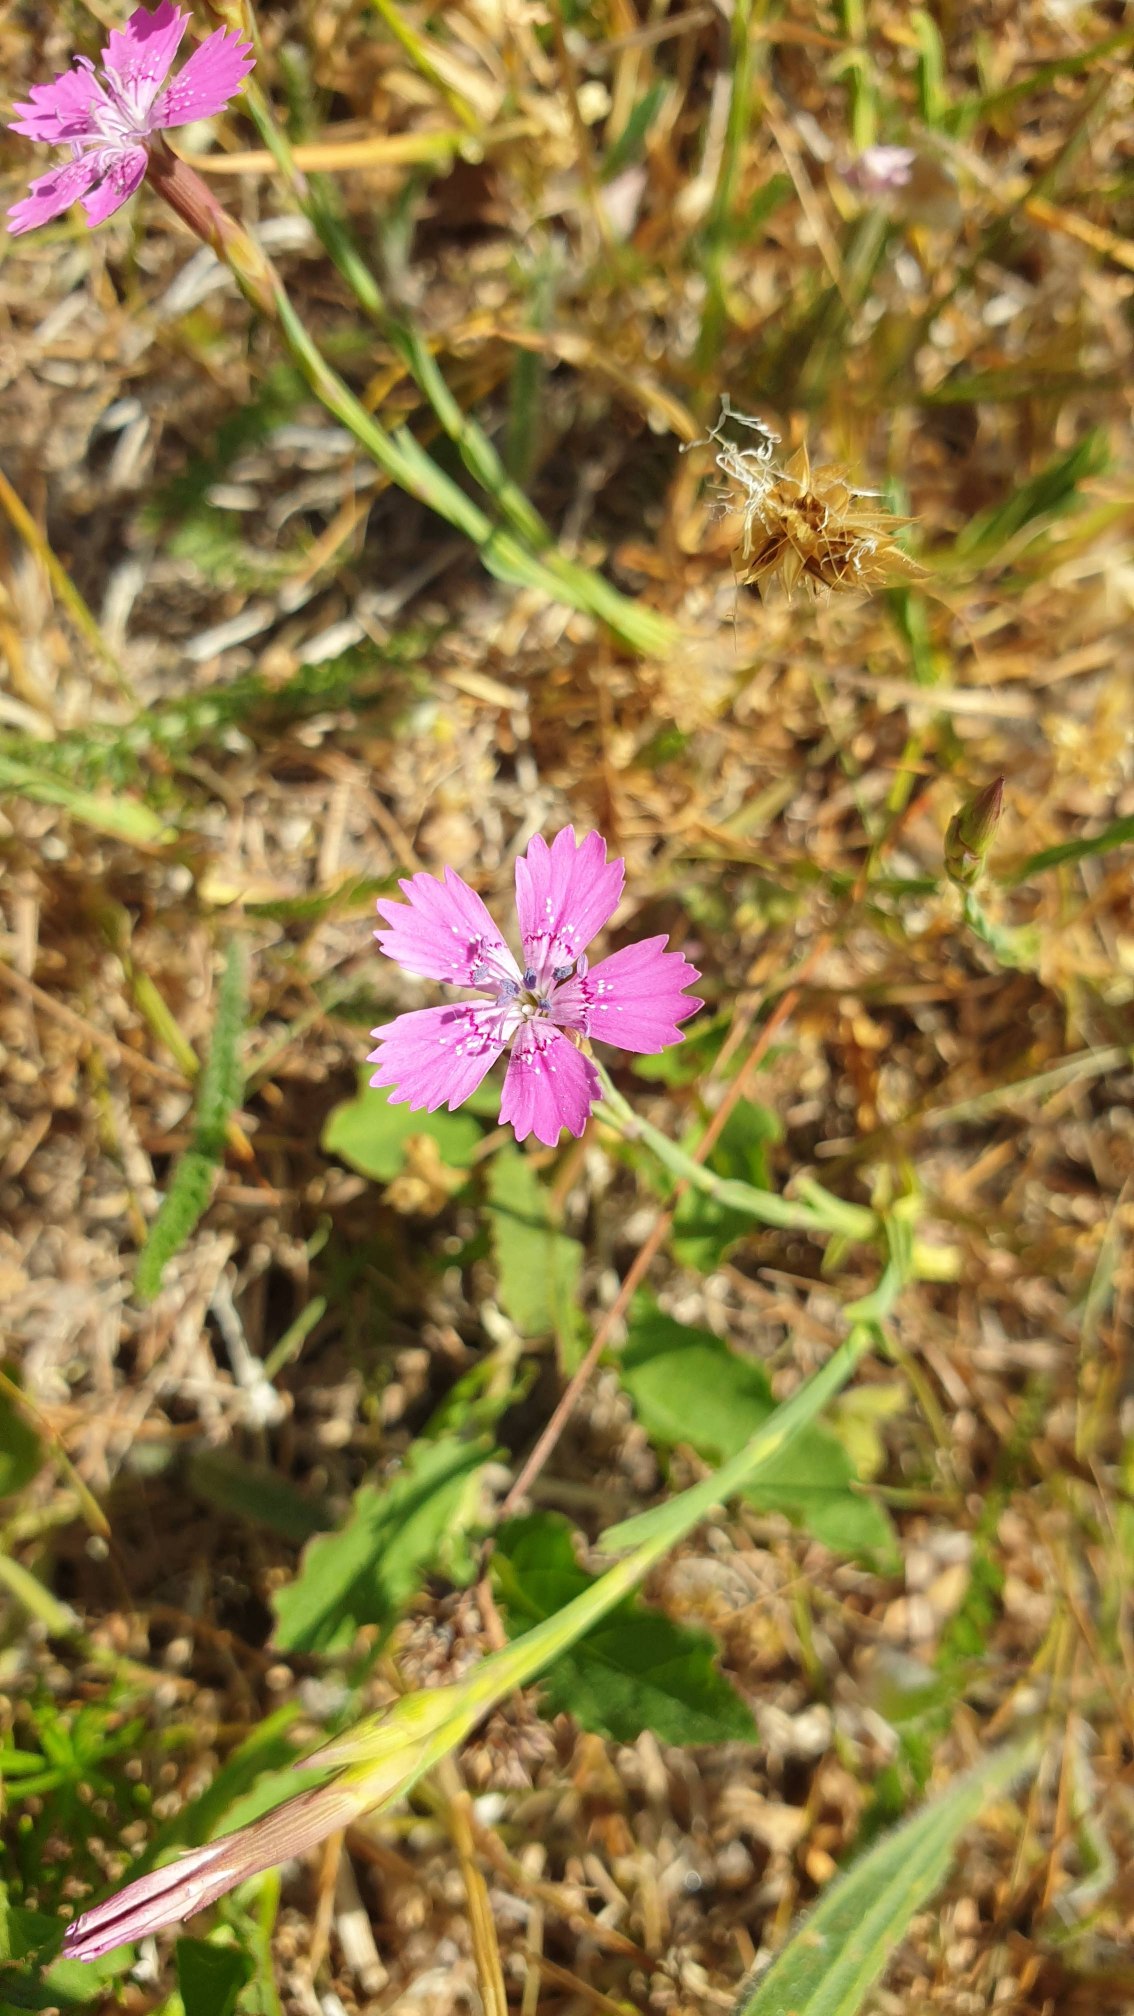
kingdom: Plantae
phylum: Tracheophyta
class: Magnoliopsida
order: Caryophyllales
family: Caryophyllaceae
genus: Dianthus
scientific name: Dianthus deltoides
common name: Bakke-nellike
